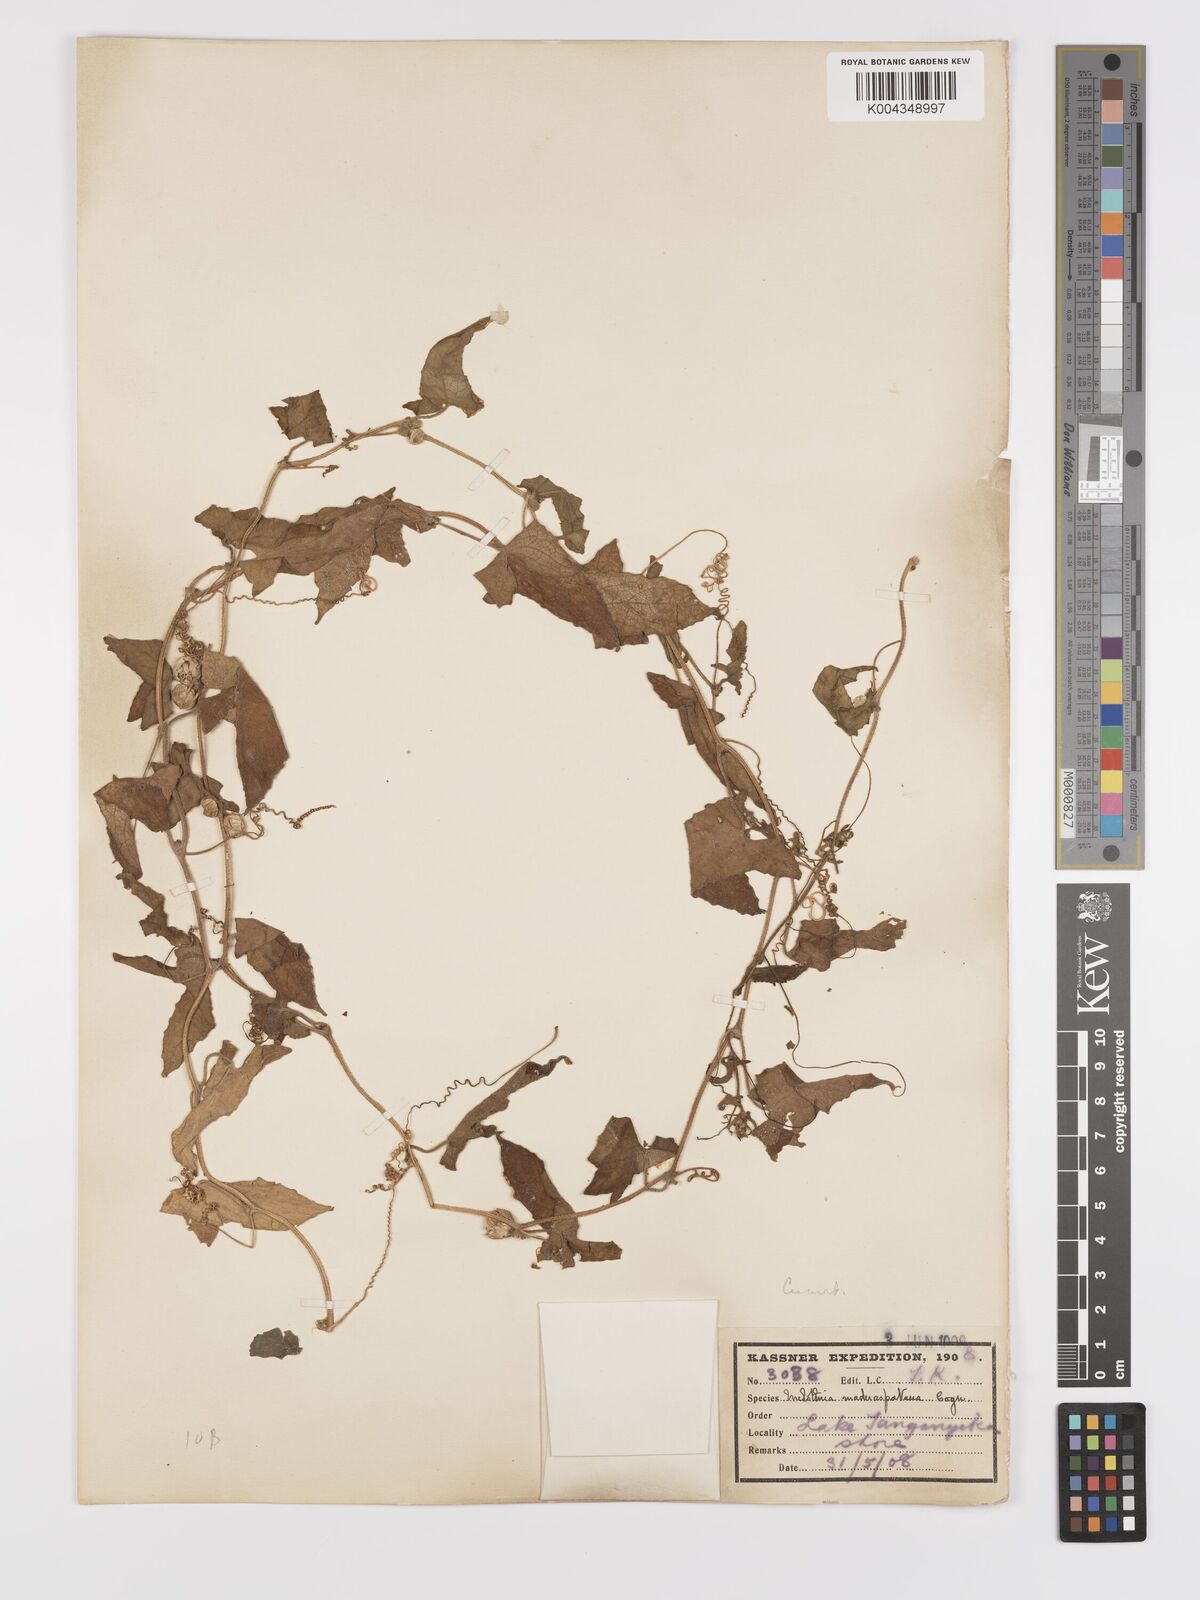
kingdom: Plantae
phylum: Tracheophyta
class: Magnoliopsida
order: Cucurbitales
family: Cucurbitaceae
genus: Cucumis
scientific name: Cucumis maderaspatanus
